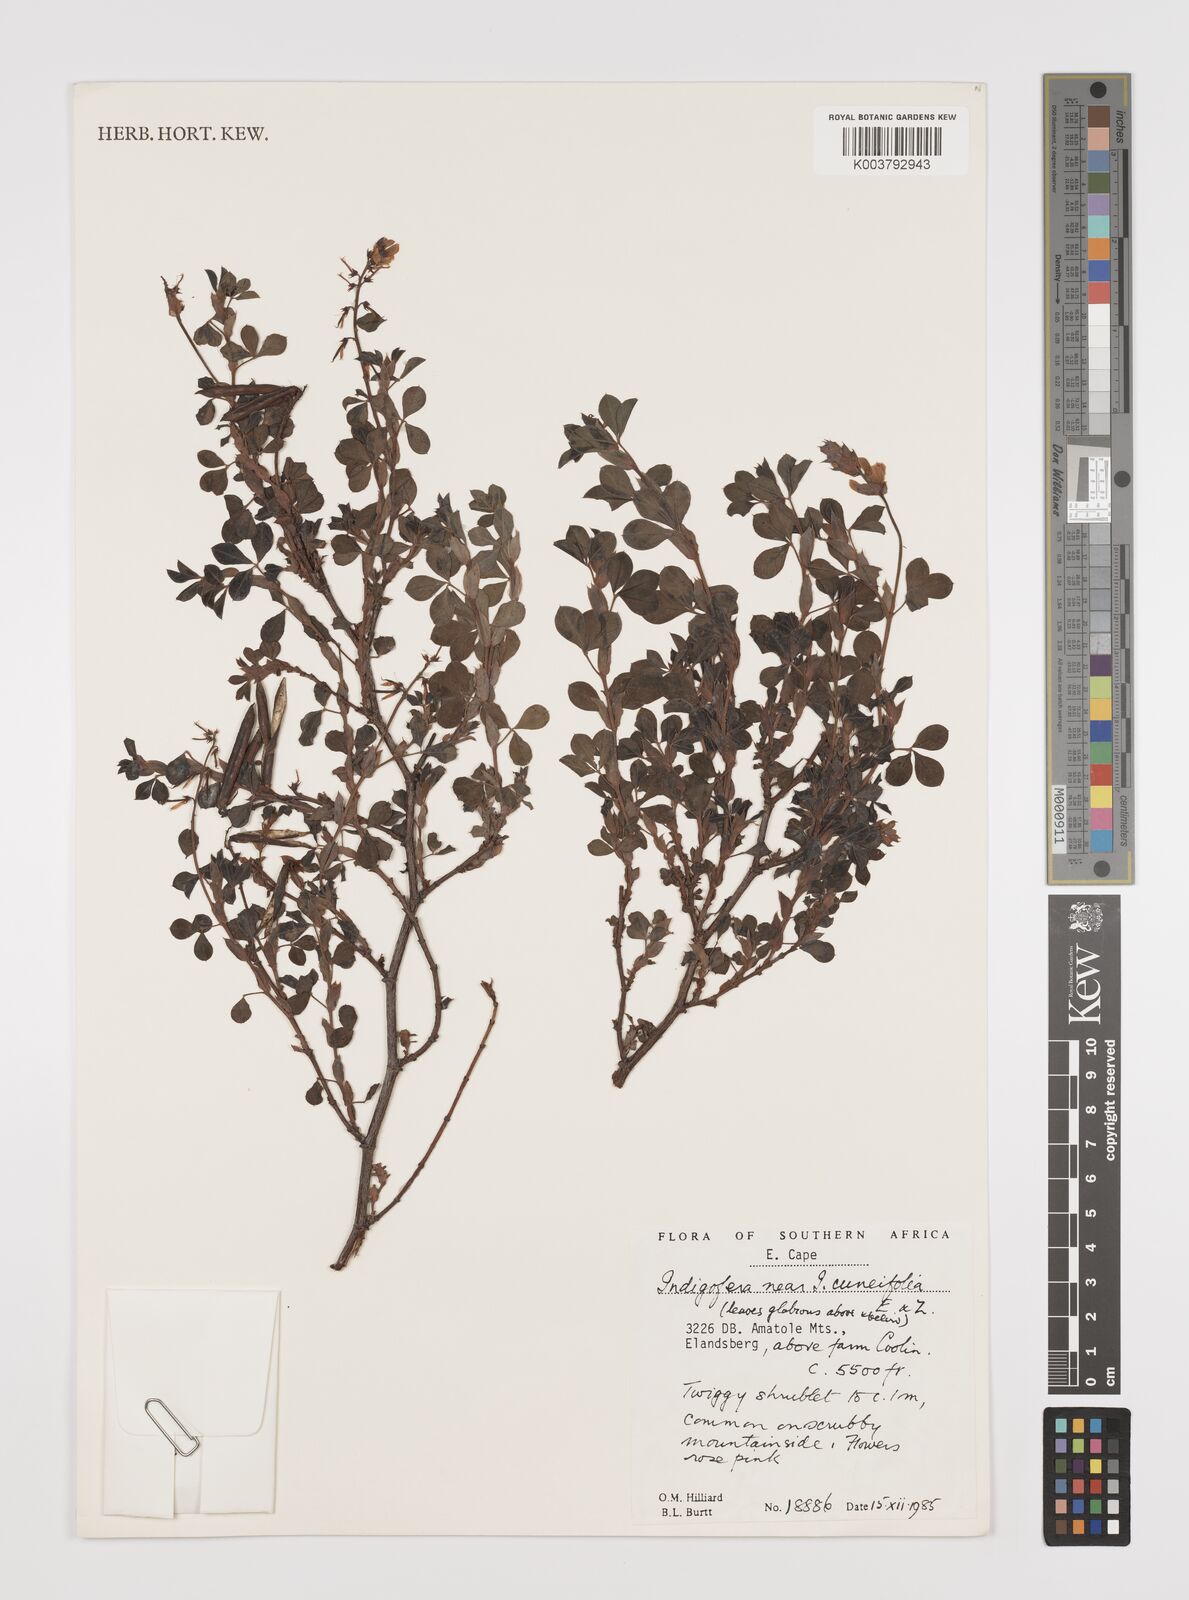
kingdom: Plantae
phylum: Tracheophyta
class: Magnoliopsida
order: Fabales
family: Fabaceae
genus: Indigofera
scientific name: Indigofera elandsbergensis
